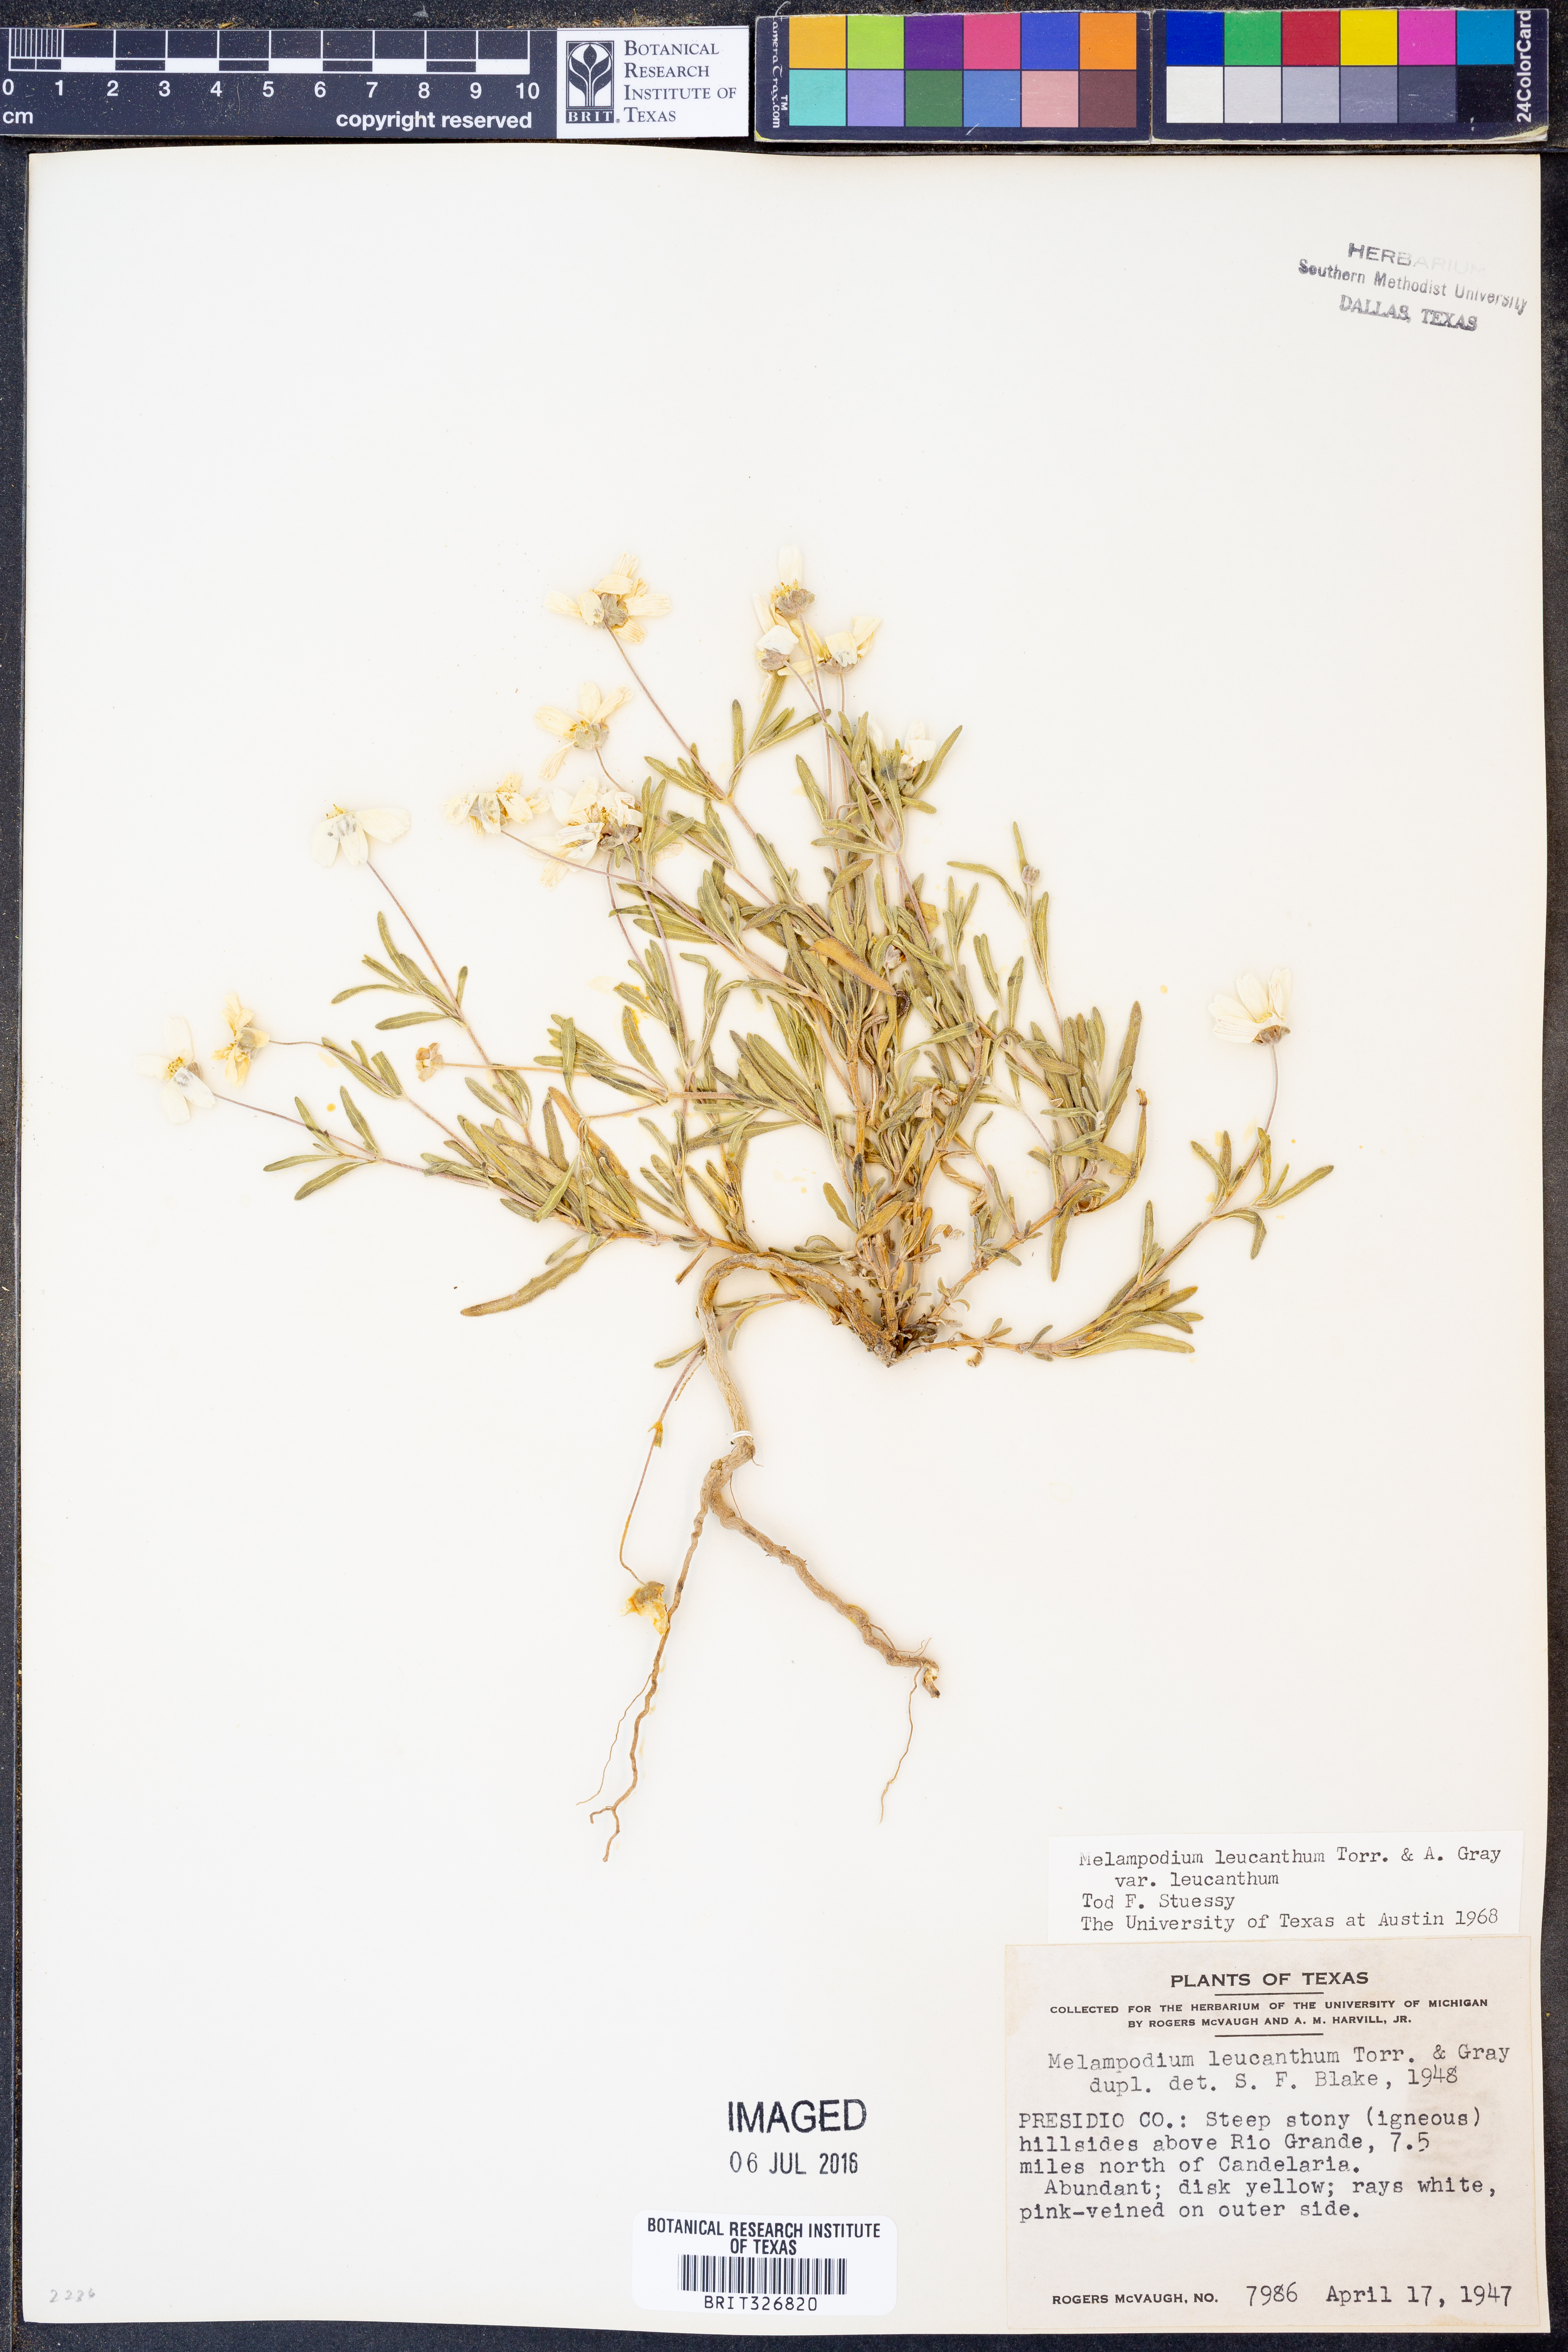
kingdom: Plantae
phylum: Tracheophyta
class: Magnoliopsida
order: Asterales
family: Asteraceae
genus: Melampodium
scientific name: Melampodium leucanthum
